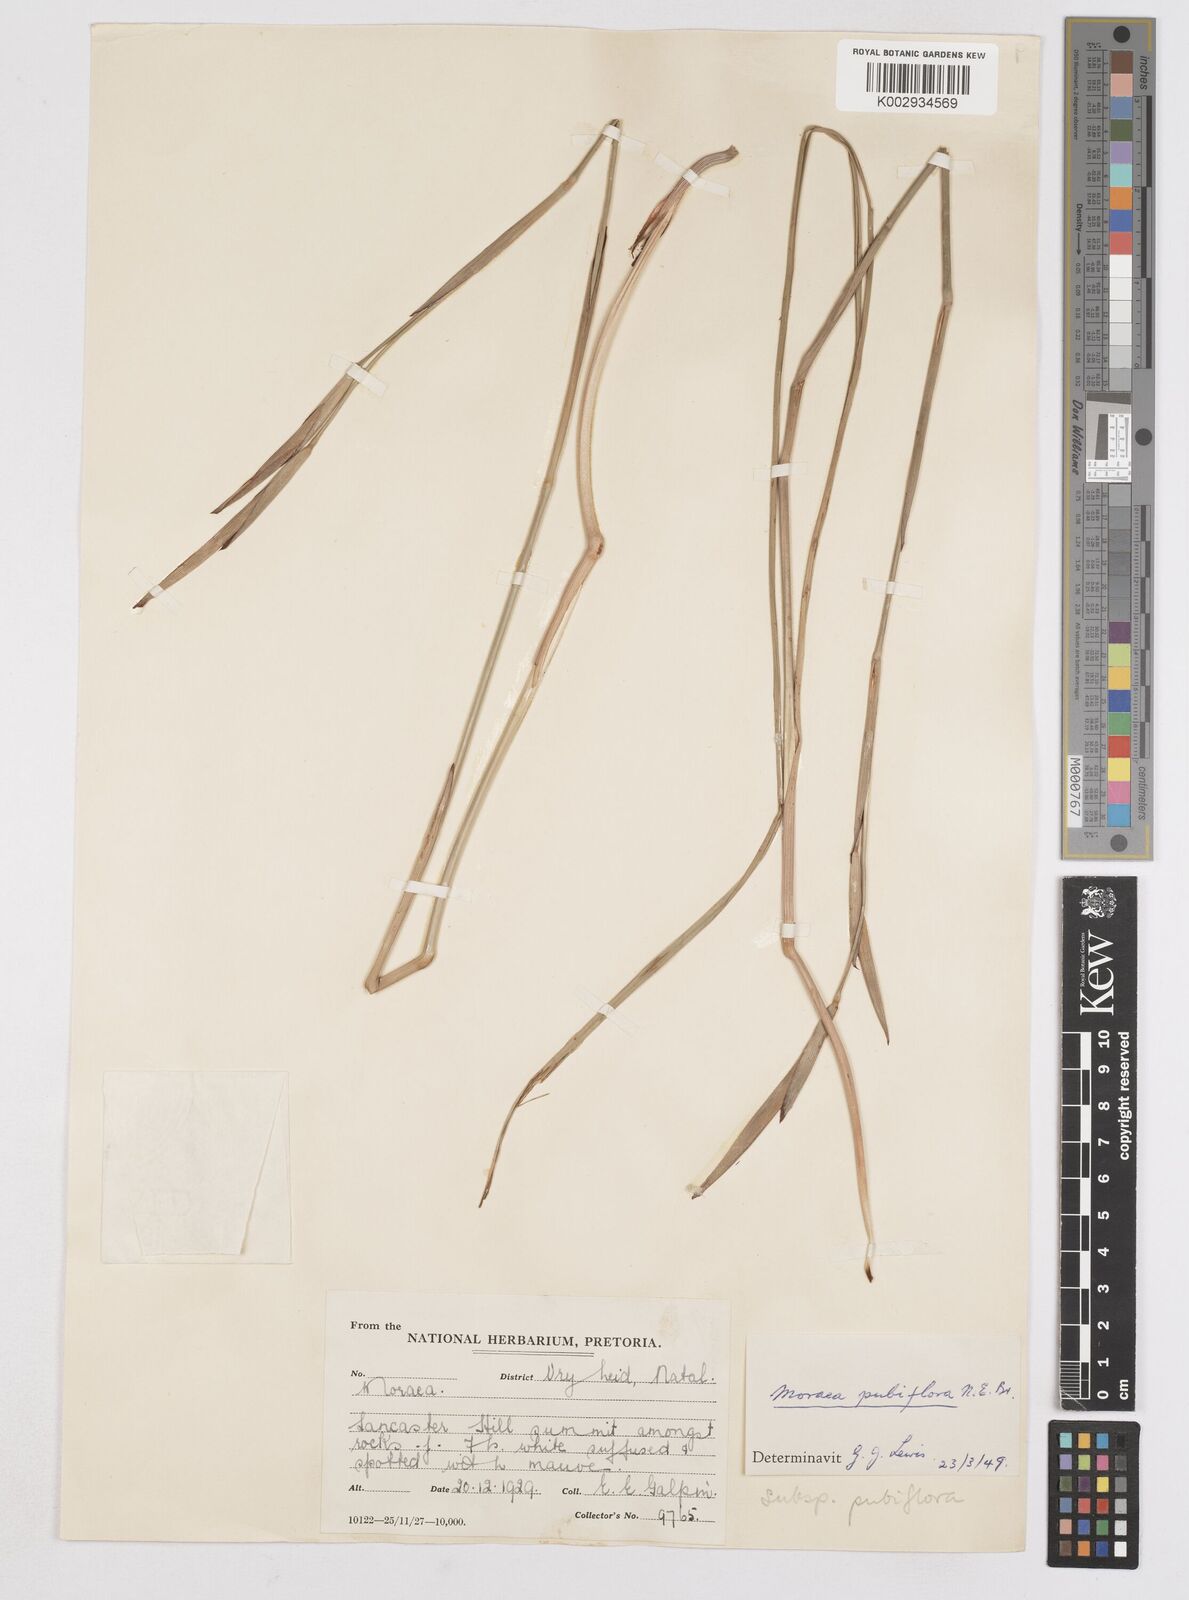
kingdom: Plantae
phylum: Tracheophyta
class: Liliopsida
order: Asparagales
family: Iridaceae
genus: Moraea
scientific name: Moraea pubiflora
